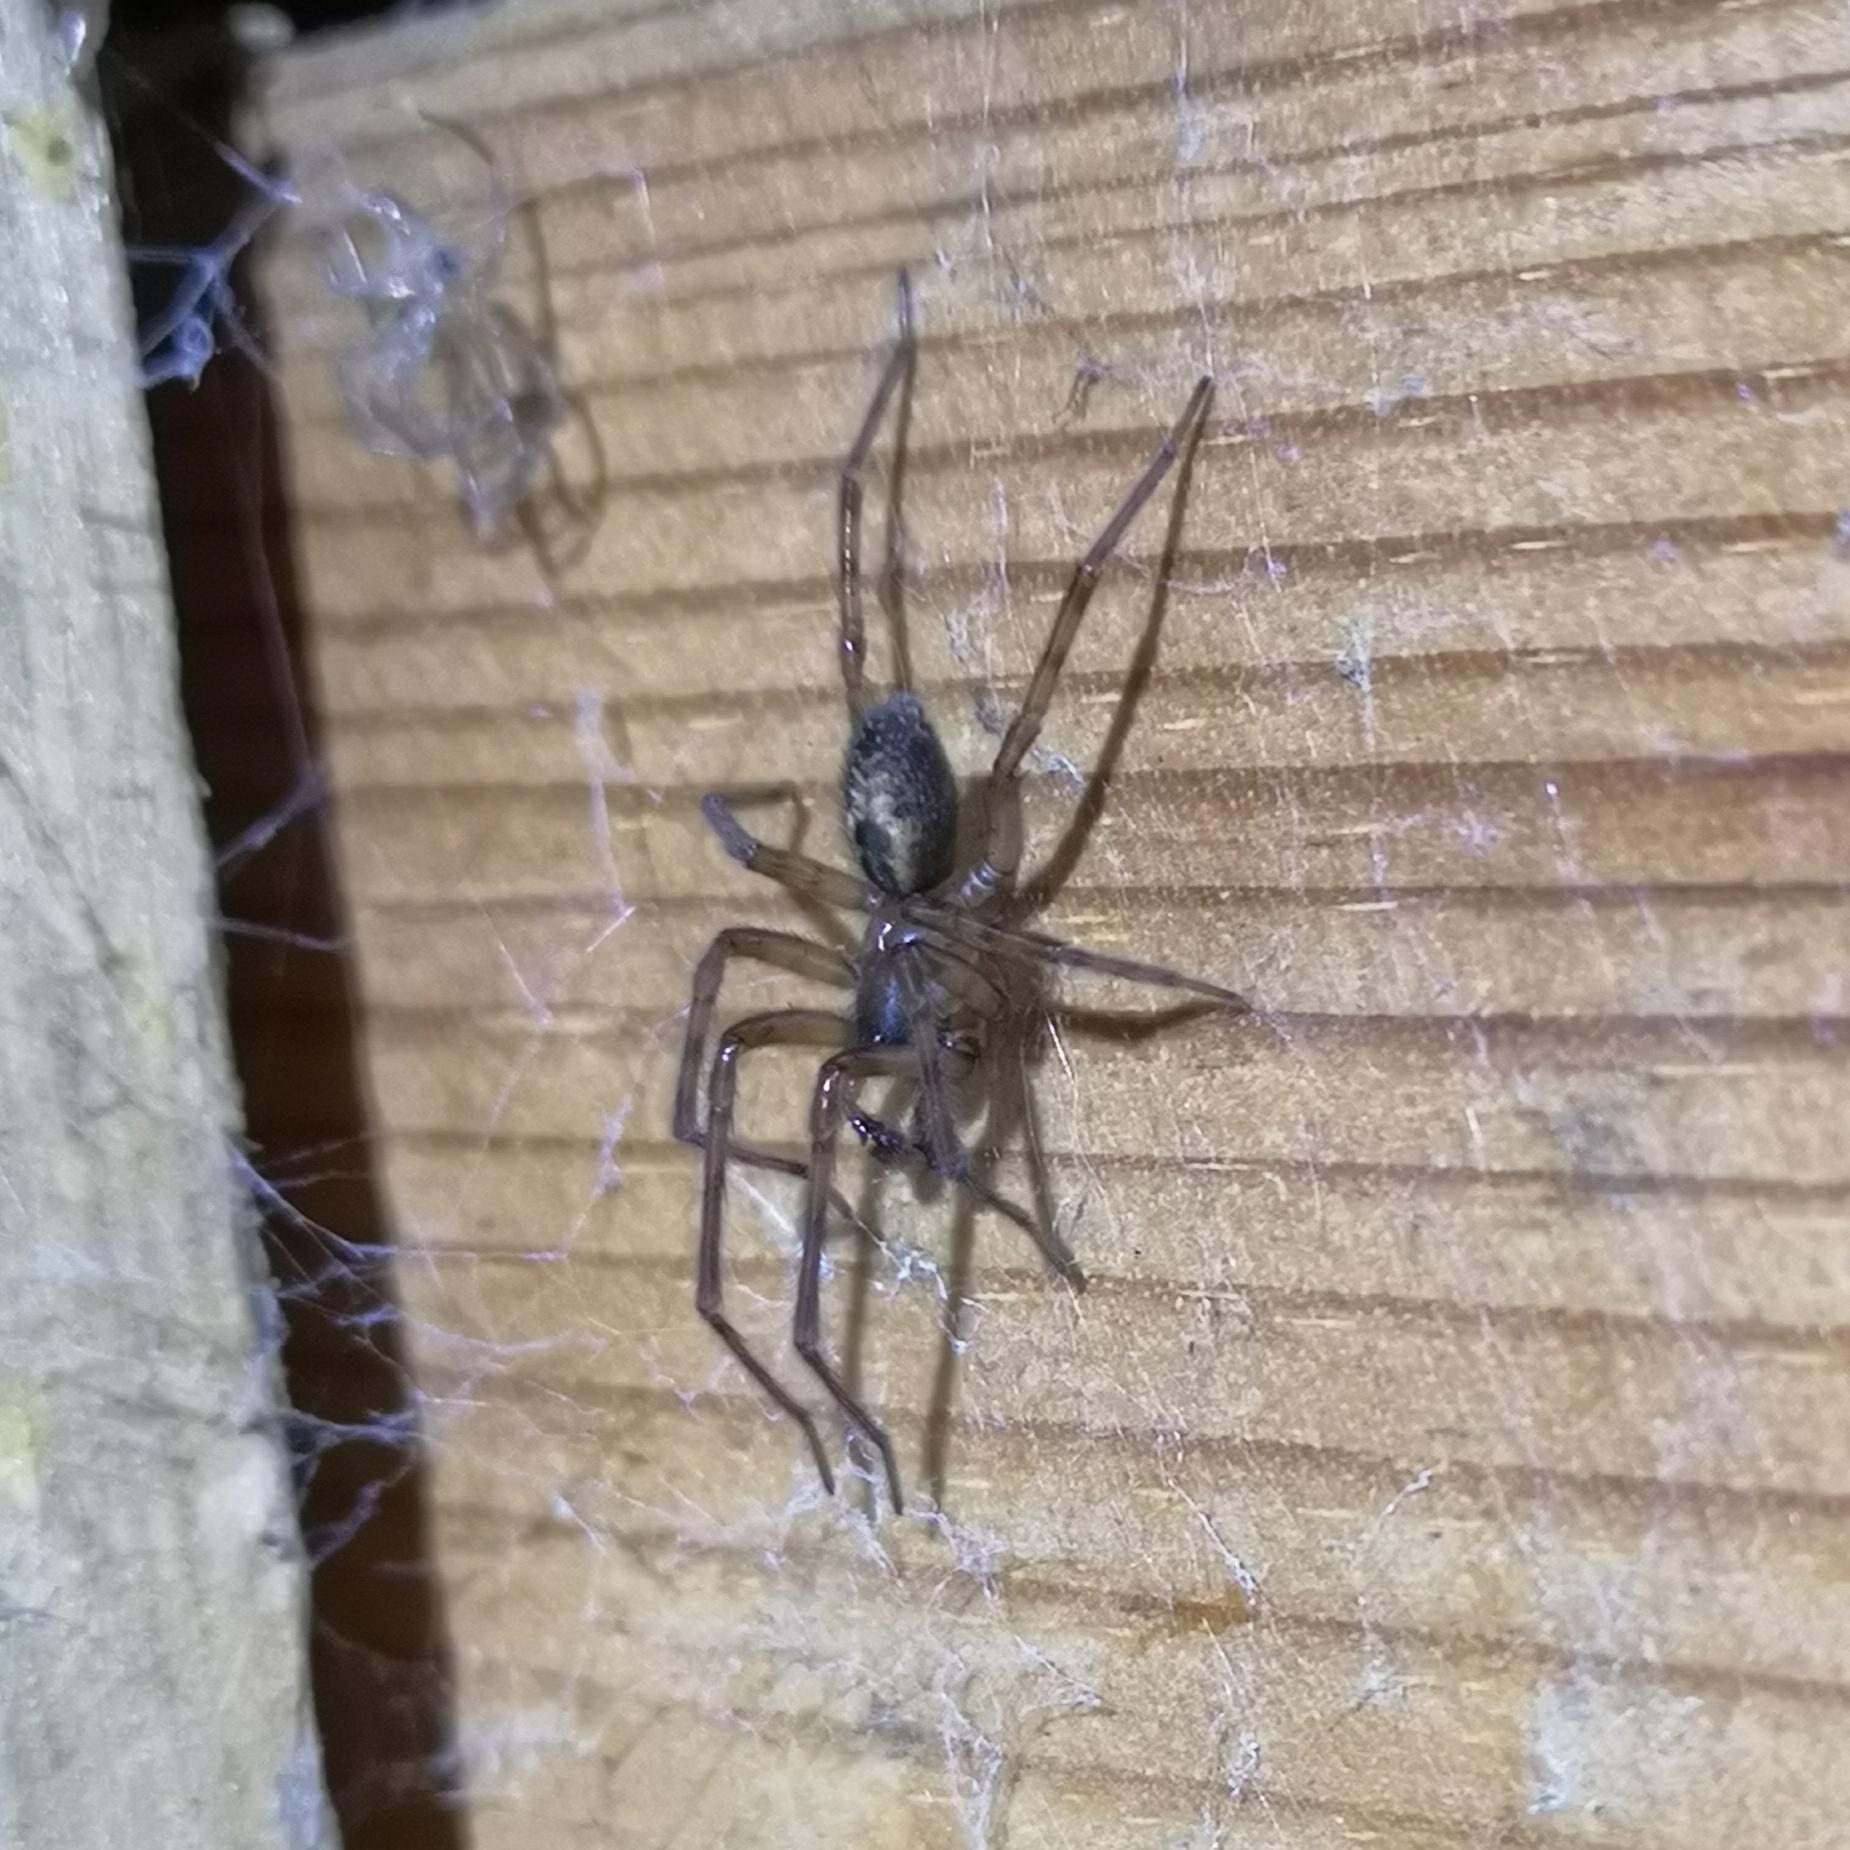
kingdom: Animalia
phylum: Arthropoda
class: Arachnida
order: Araneae
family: Amaurobiidae
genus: Amaurobius
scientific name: Amaurobius similis
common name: Huskartespinder
